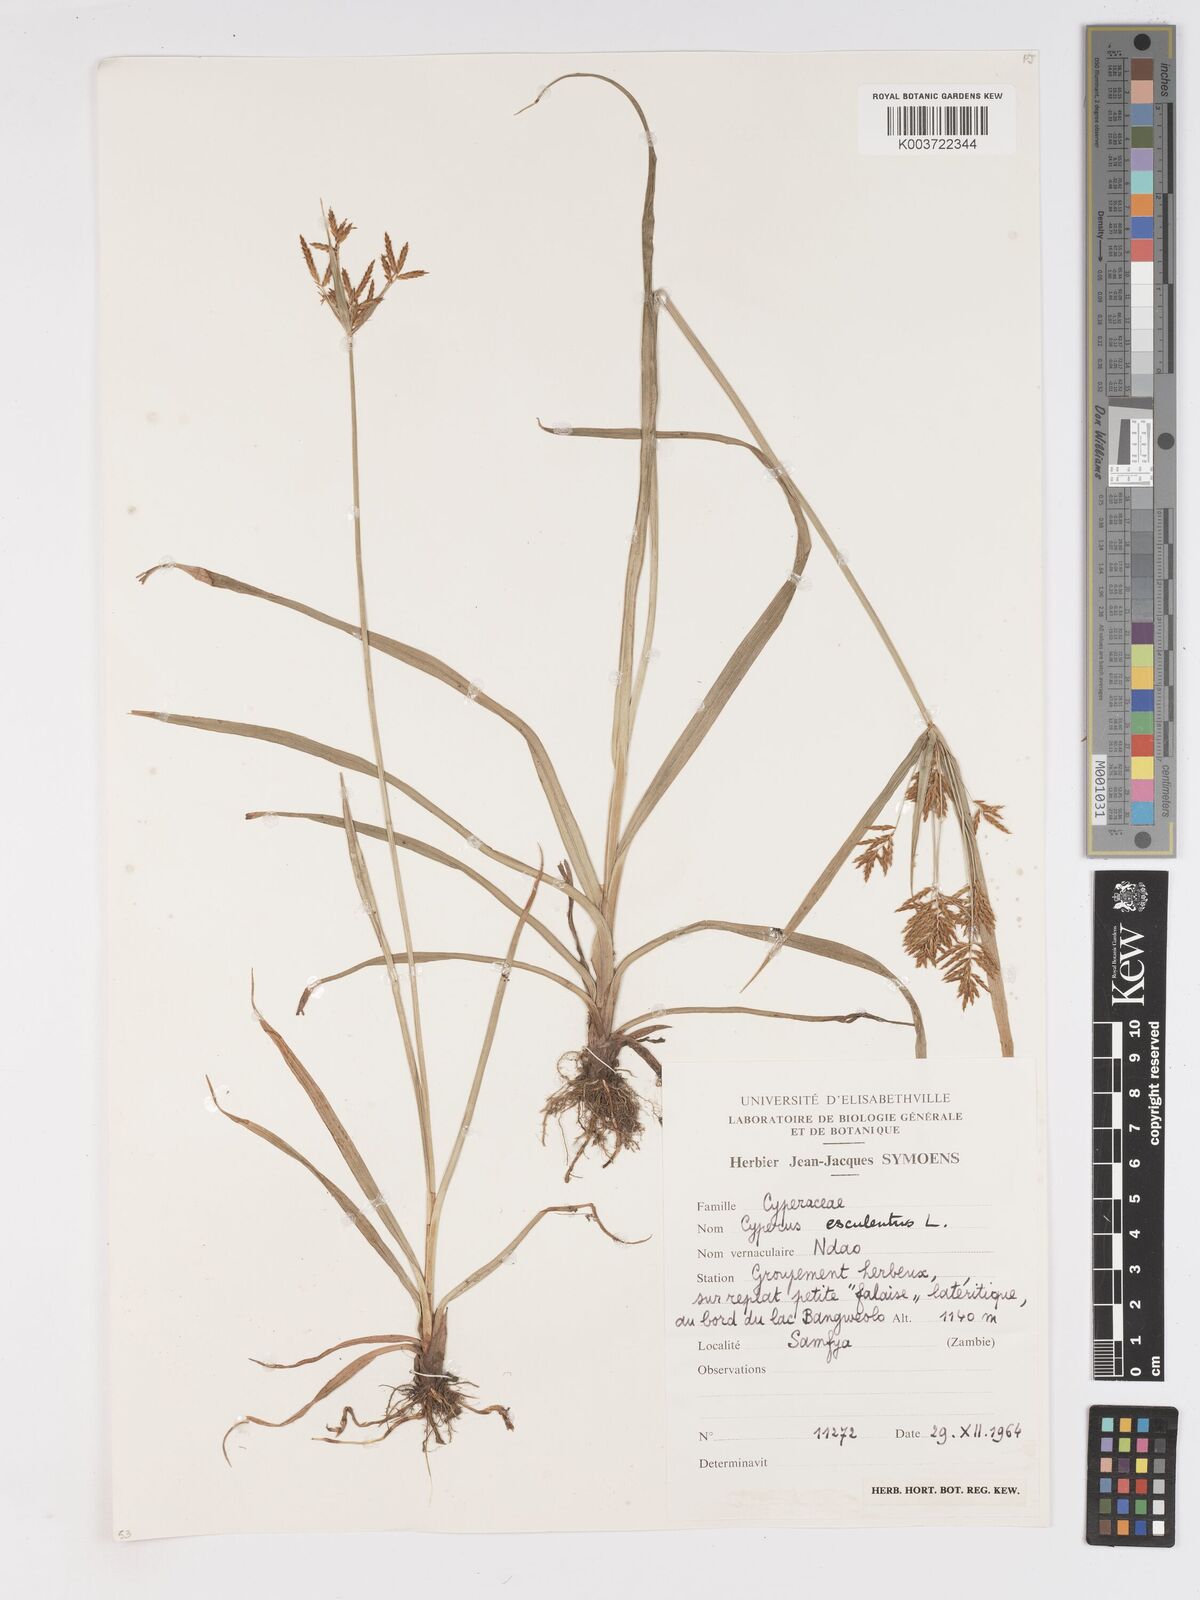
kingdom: Plantae
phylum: Tracheophyta
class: Liliopsida
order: Poales
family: Cyperaceae
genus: Cyperus
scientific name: Cyperus esculentus
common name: Yellow nutsedge
